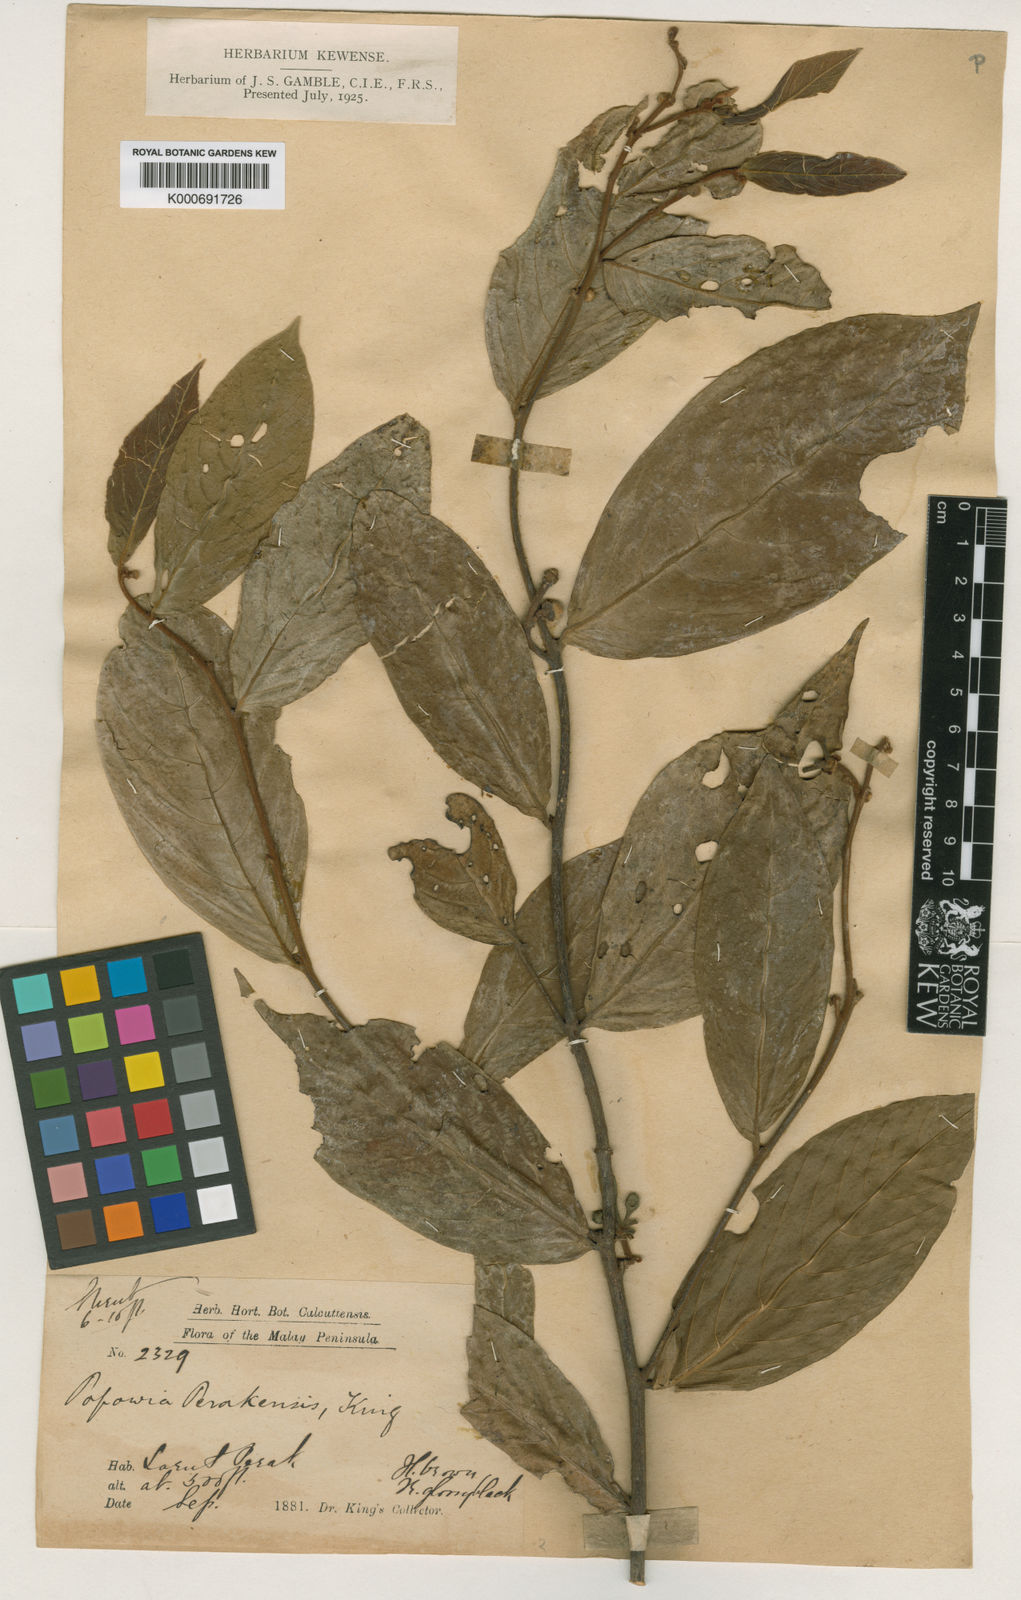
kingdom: Plantae
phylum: Tracheophyta
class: Magnoliopsida
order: Magnoliales
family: Annonaceae
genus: Popowia
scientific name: Popowia perakensis
